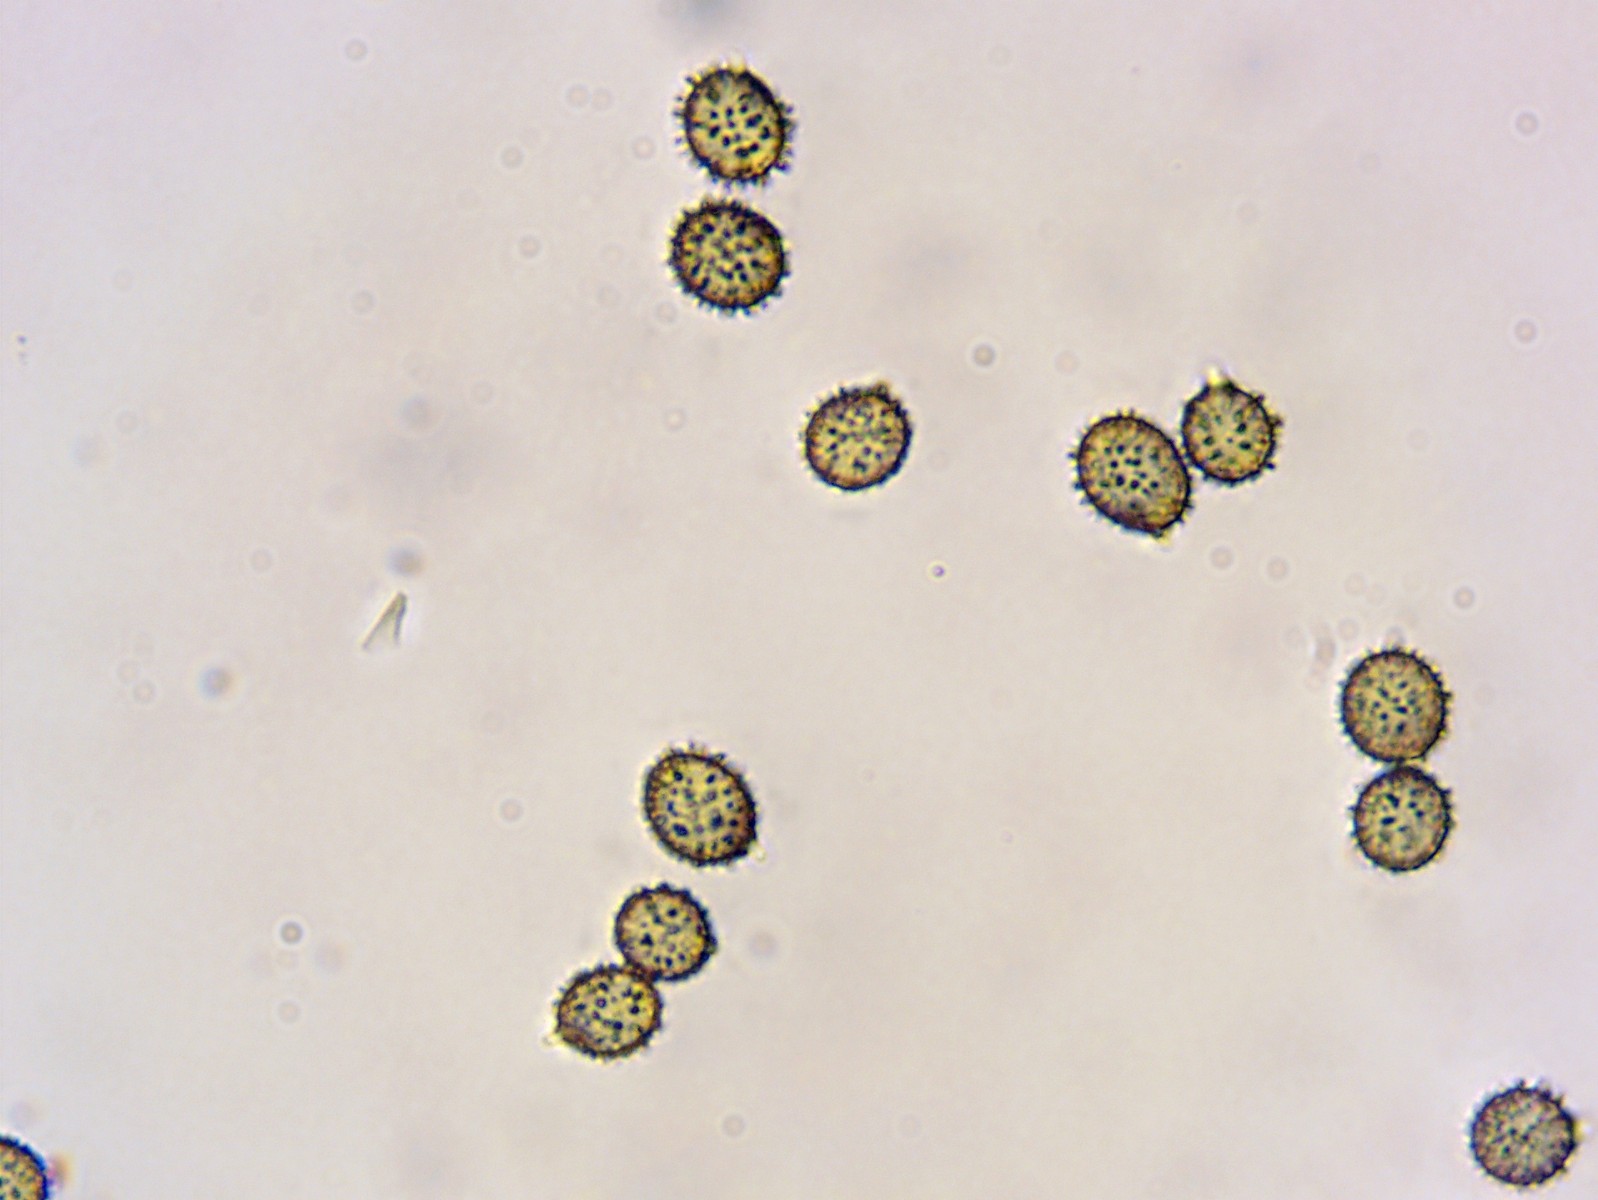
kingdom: Fungi
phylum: Basidiomycota
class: Agaricomycetes
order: Russulales
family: Russulaceae
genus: Russula
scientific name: Russula
